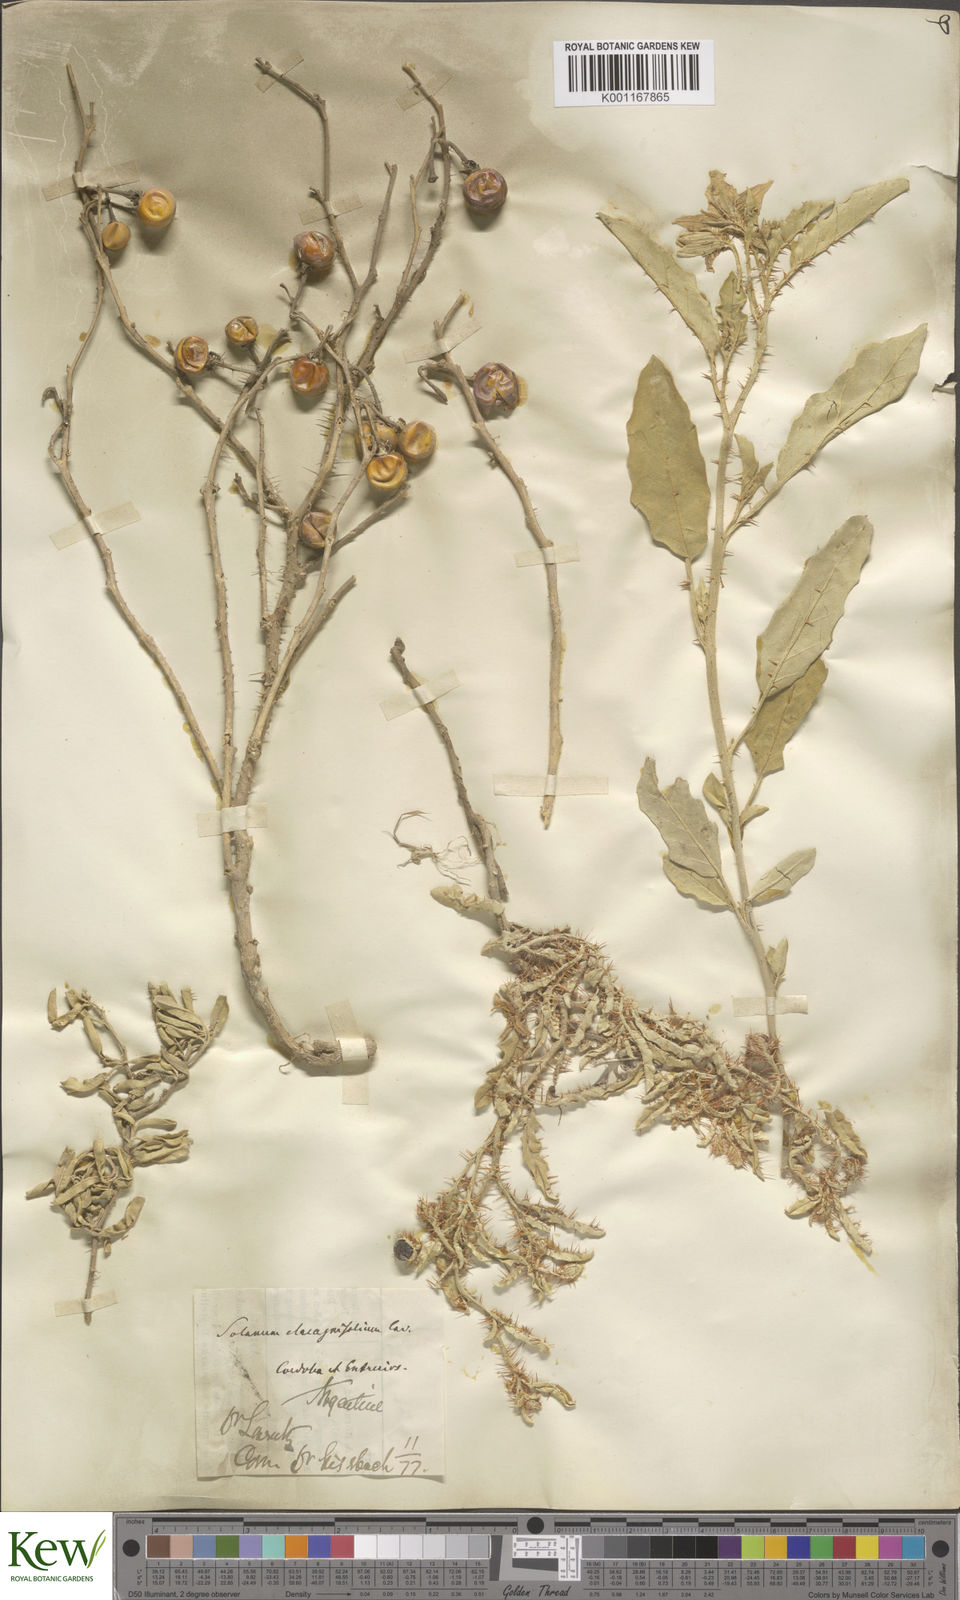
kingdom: Plantae
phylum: Tracheophyta
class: Magnoliopsida
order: Solanales
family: Solanaceae
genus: Solanum
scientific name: Solanum elaeagnifolium
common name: Silverleaf nightshade
